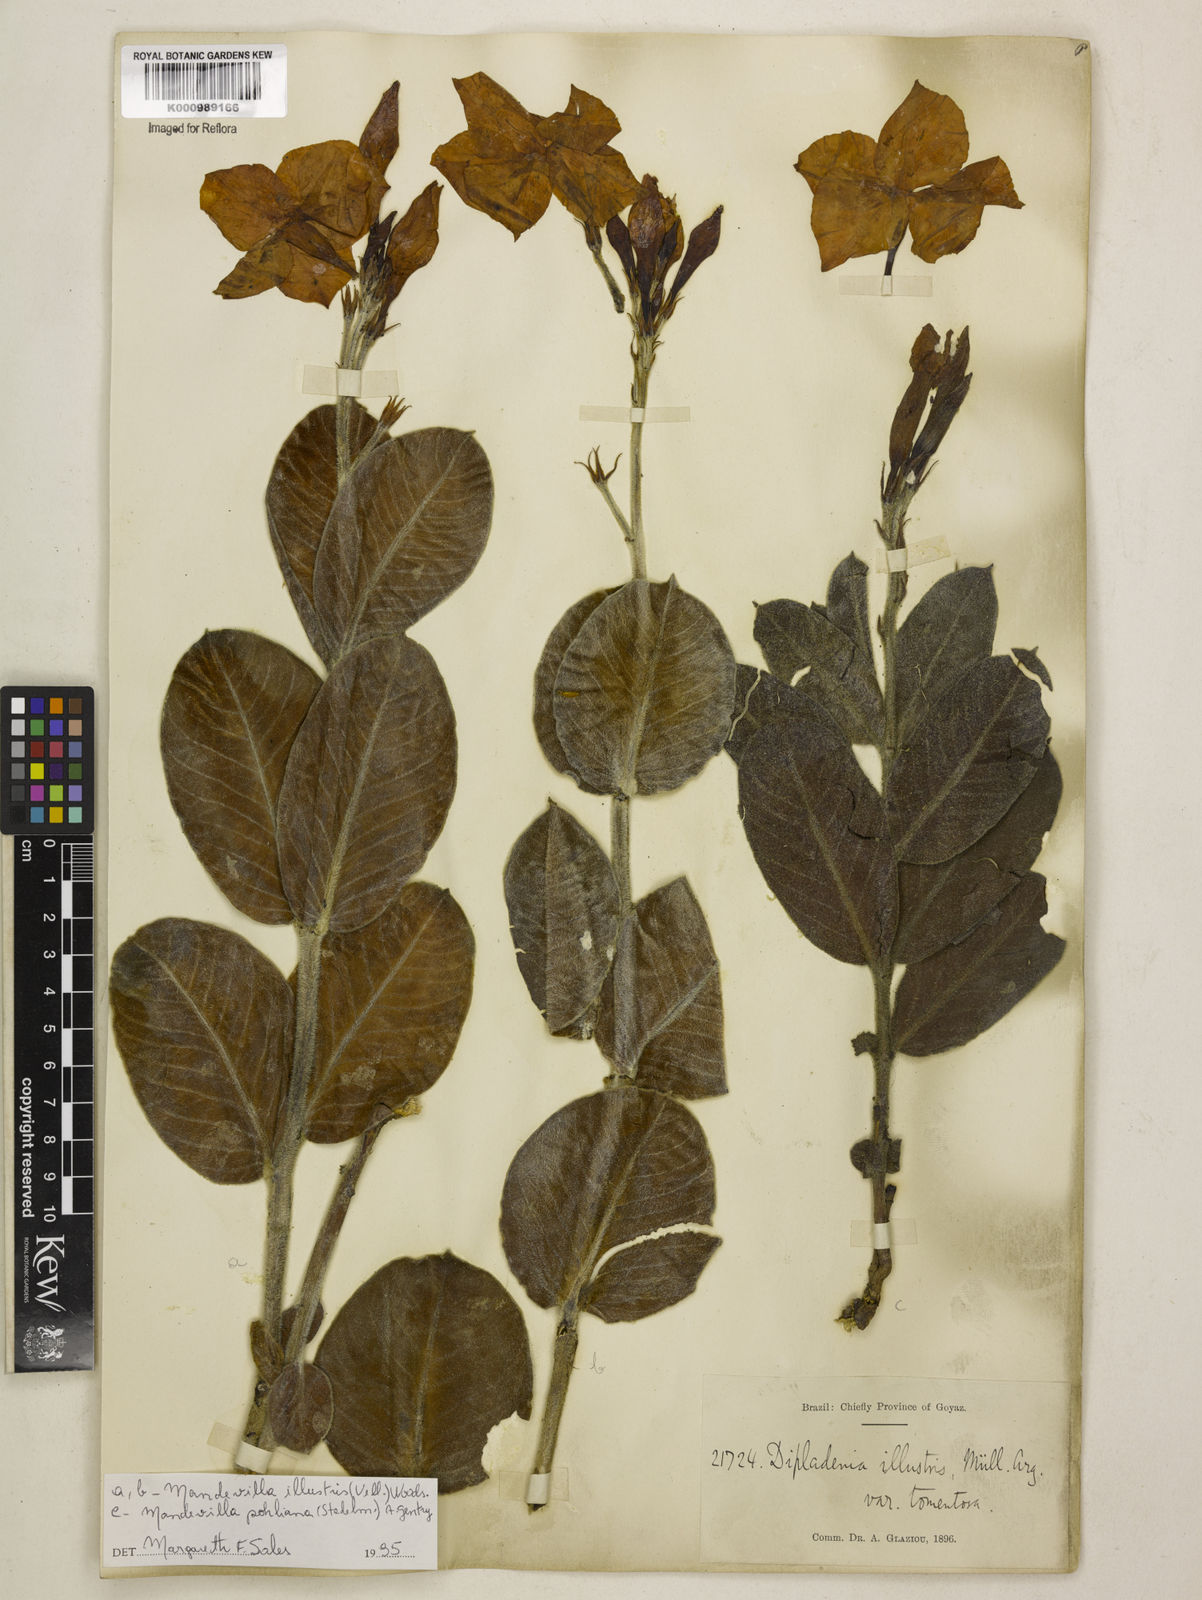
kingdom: Plantae
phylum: Tracheophyta
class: Magnoliopsida
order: Gentianales
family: Apocynaceae
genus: Mandevilla
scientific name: Mandevilla illustris
